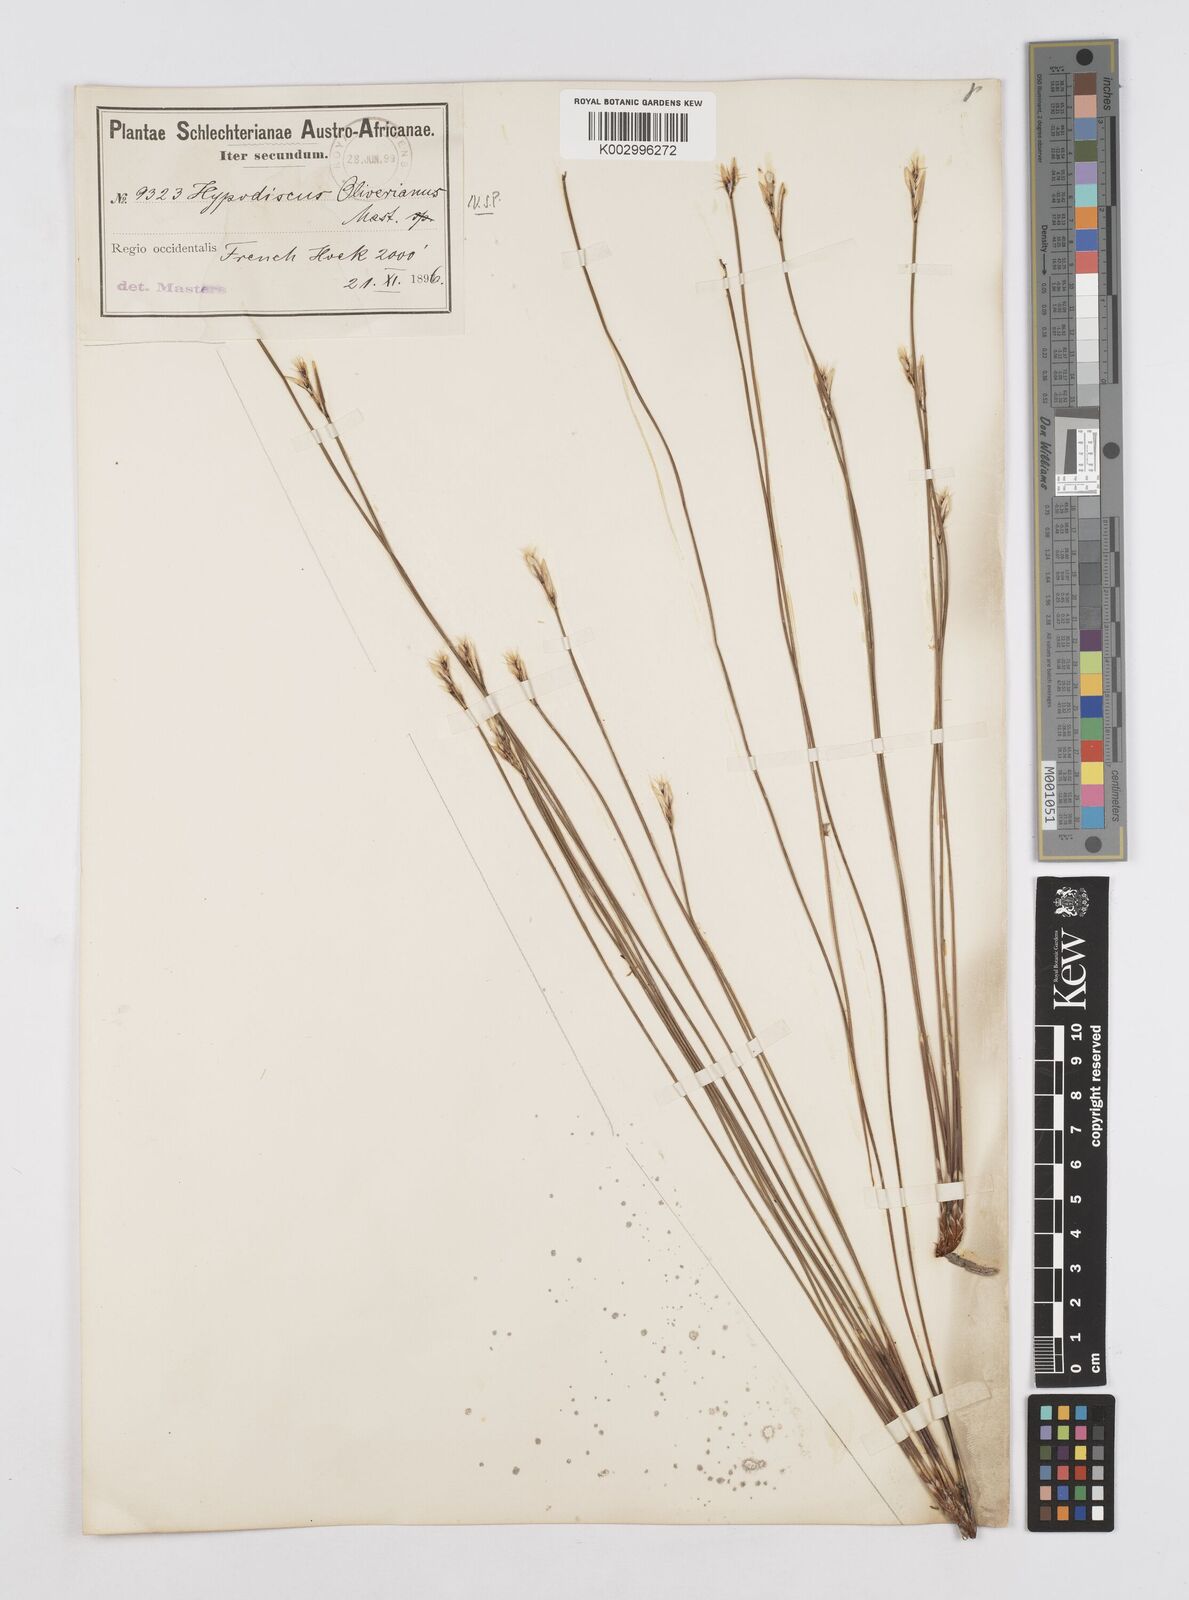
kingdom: Plantae
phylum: Tracheophyta
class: Liliopsida
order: Poales
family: Restionaceae
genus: Hypodiscus
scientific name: Hypodiscus alboaristatus
